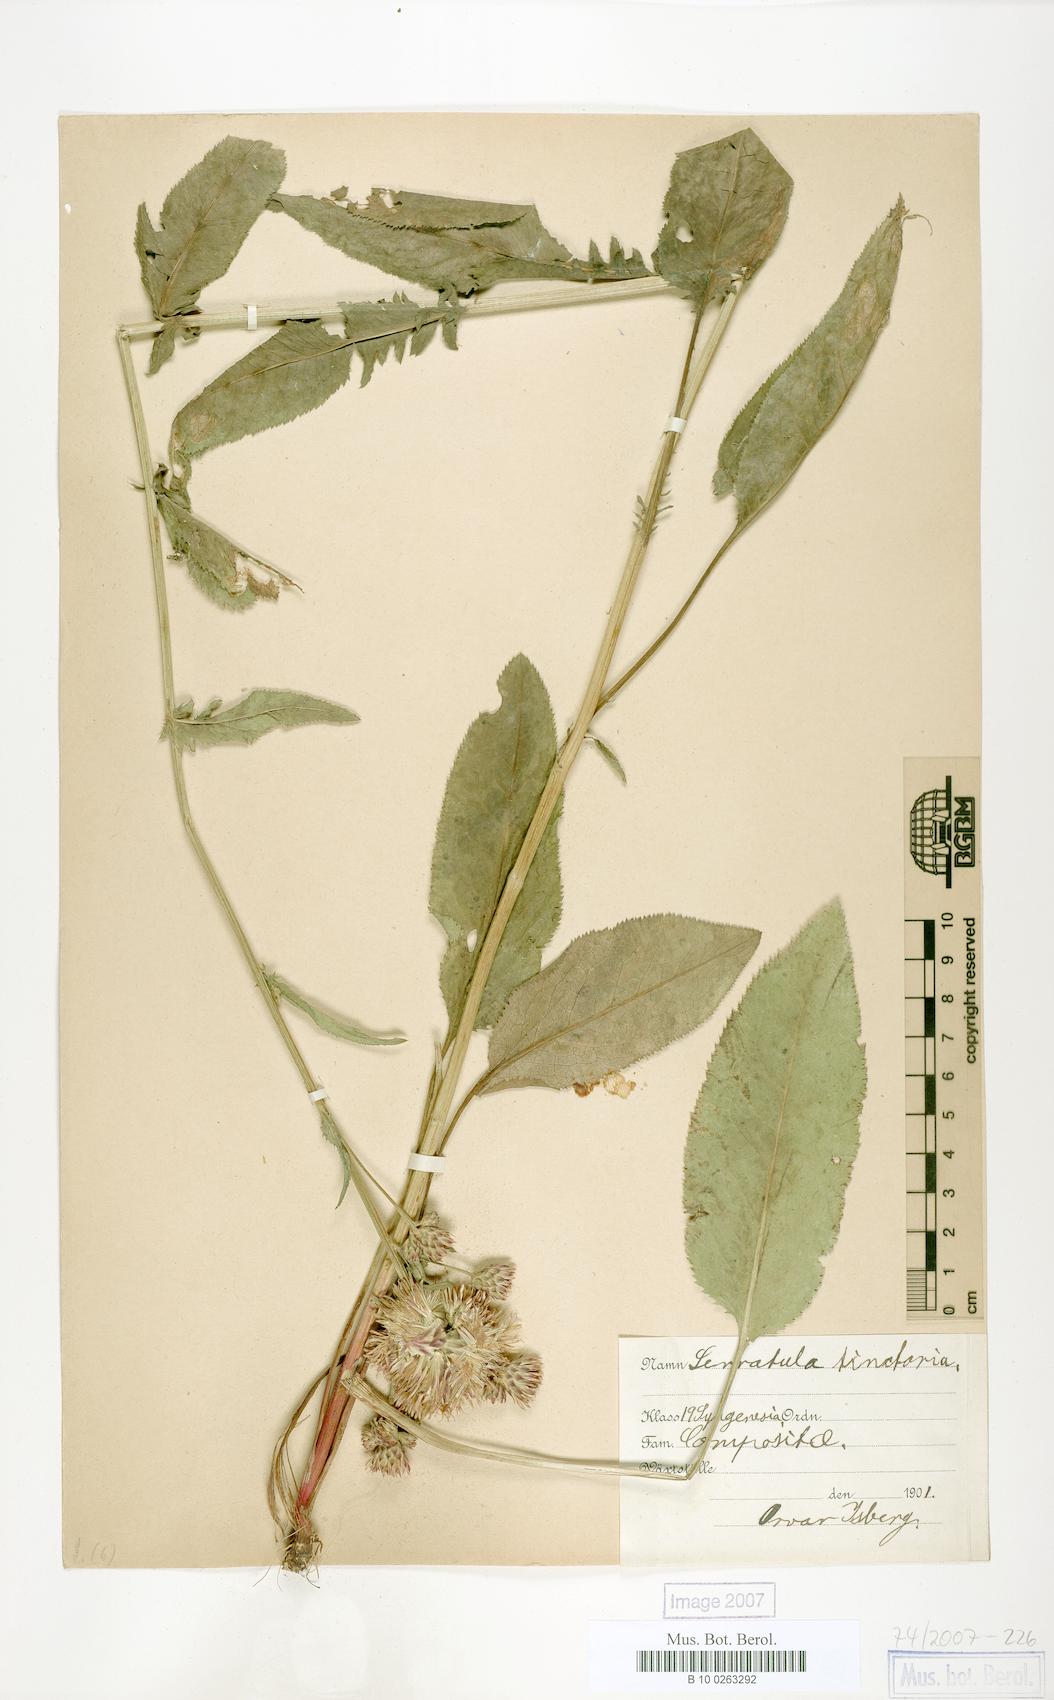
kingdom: Plantae
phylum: Tracheophyta
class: Magnoliopsida
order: Asterales
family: Asteraceae
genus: Serratula
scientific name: Serratula tinctoria
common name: Saw-wort
